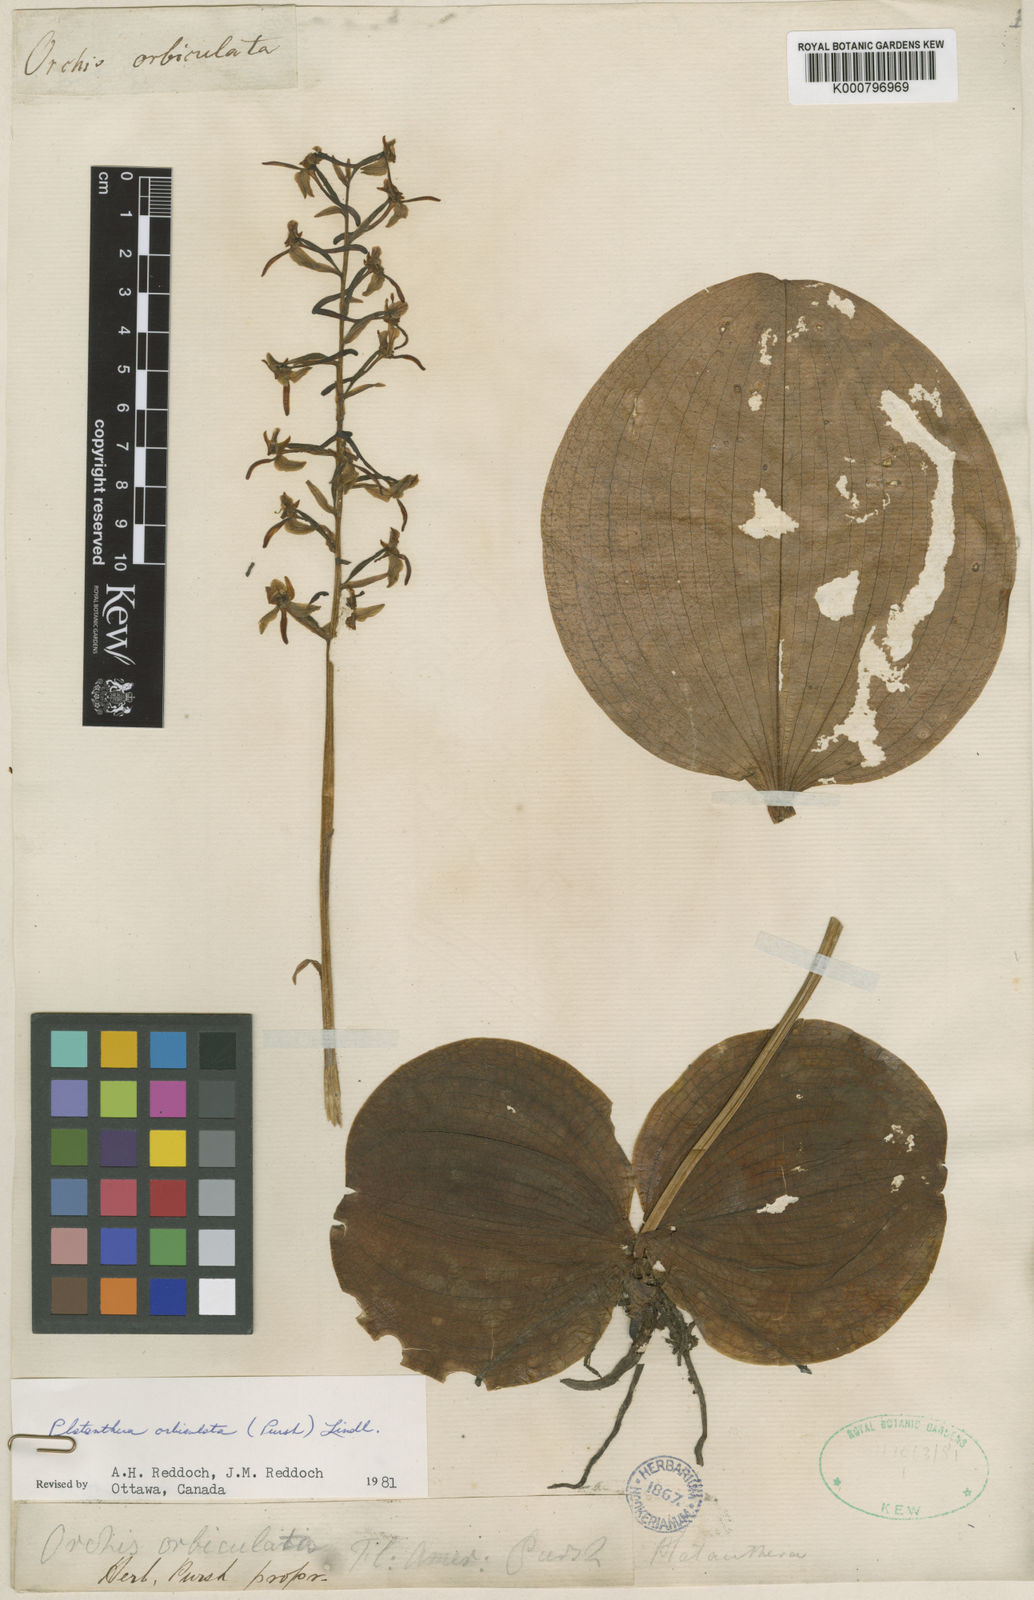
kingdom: Plantae
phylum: Tracheophyta
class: Liliopsida
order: Asparagales
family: Orchidaceae
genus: Platanthera
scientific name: Platanthera orbiculata
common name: Large round-leaved orchid
